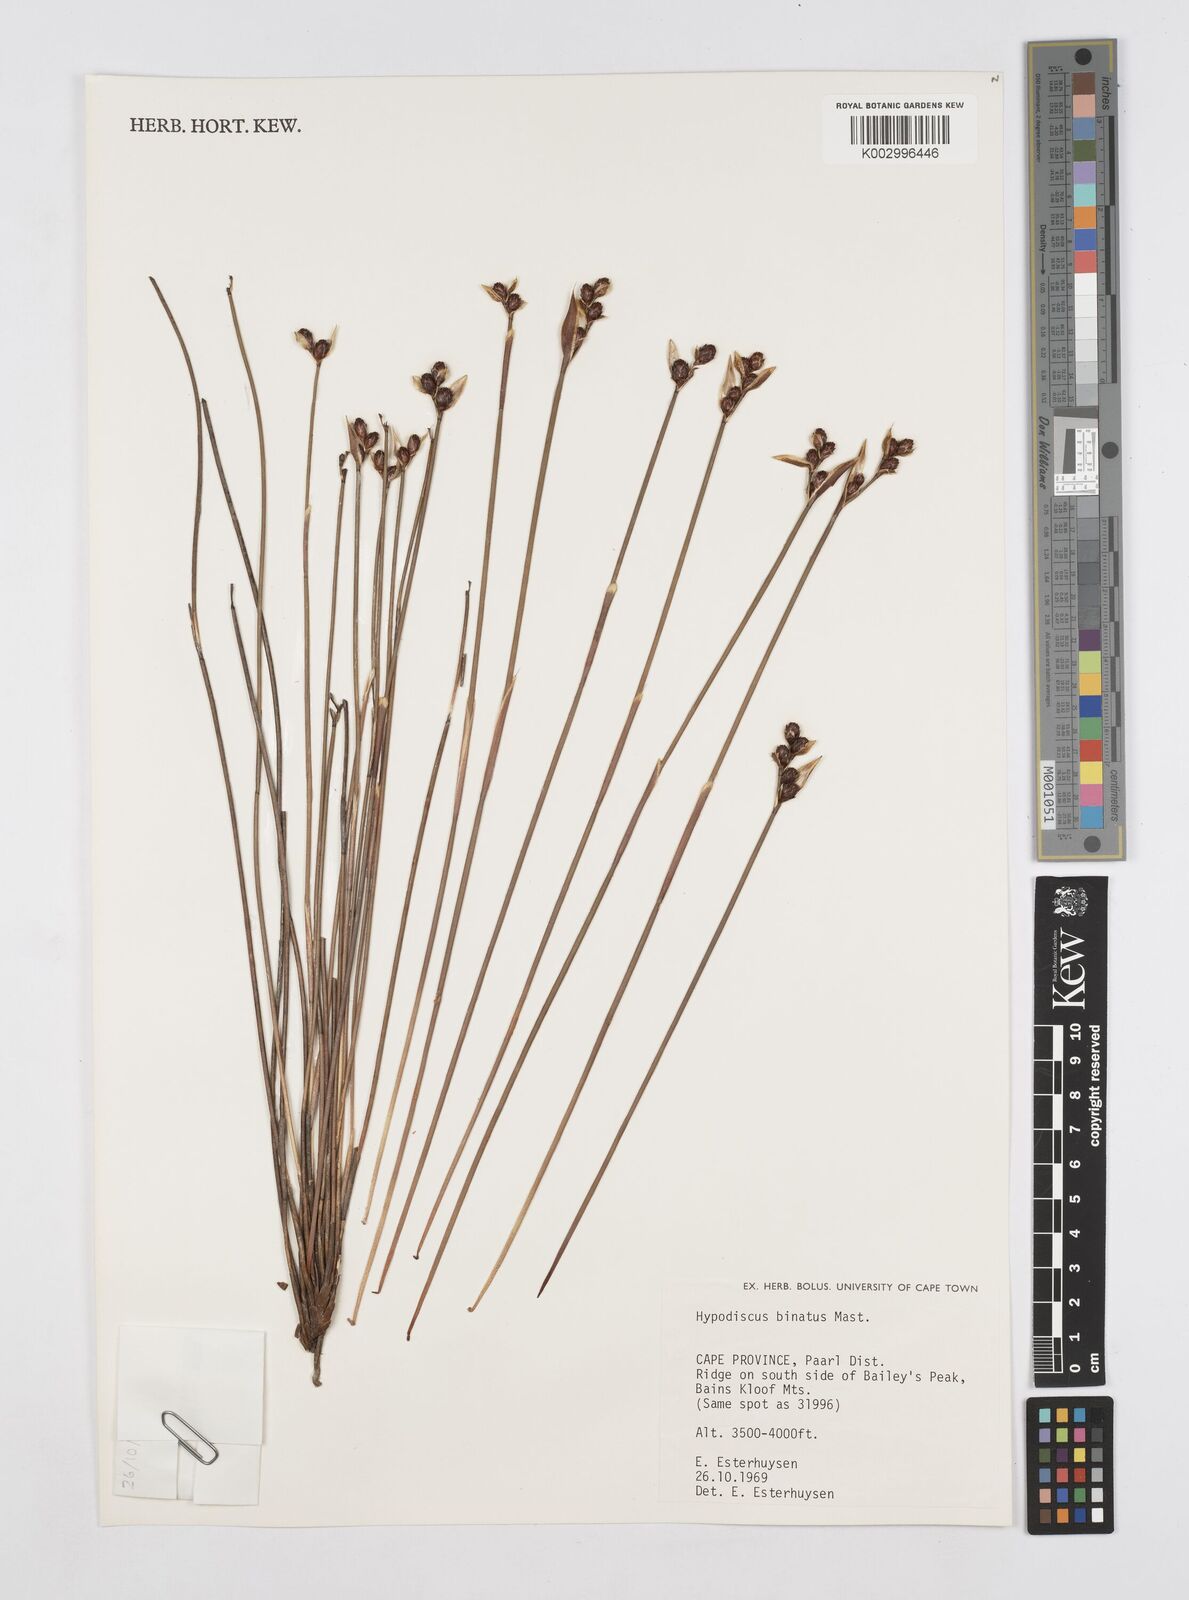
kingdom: Plantae
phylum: Tracheophyta
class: Liliopsida
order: Poales
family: Restionaceae
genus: Hypodiscus
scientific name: Hypodiscus laevigatus
